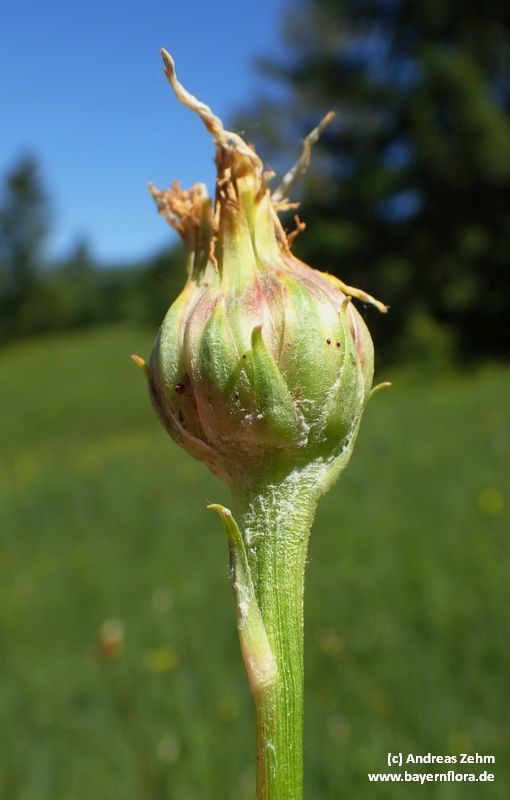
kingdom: Plantae
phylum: Tracheophyta
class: Magnoliopsida
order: Asterales
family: Asteraceae
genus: Scorzonera
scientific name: Scorzonera humilis
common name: Viper's-grass
